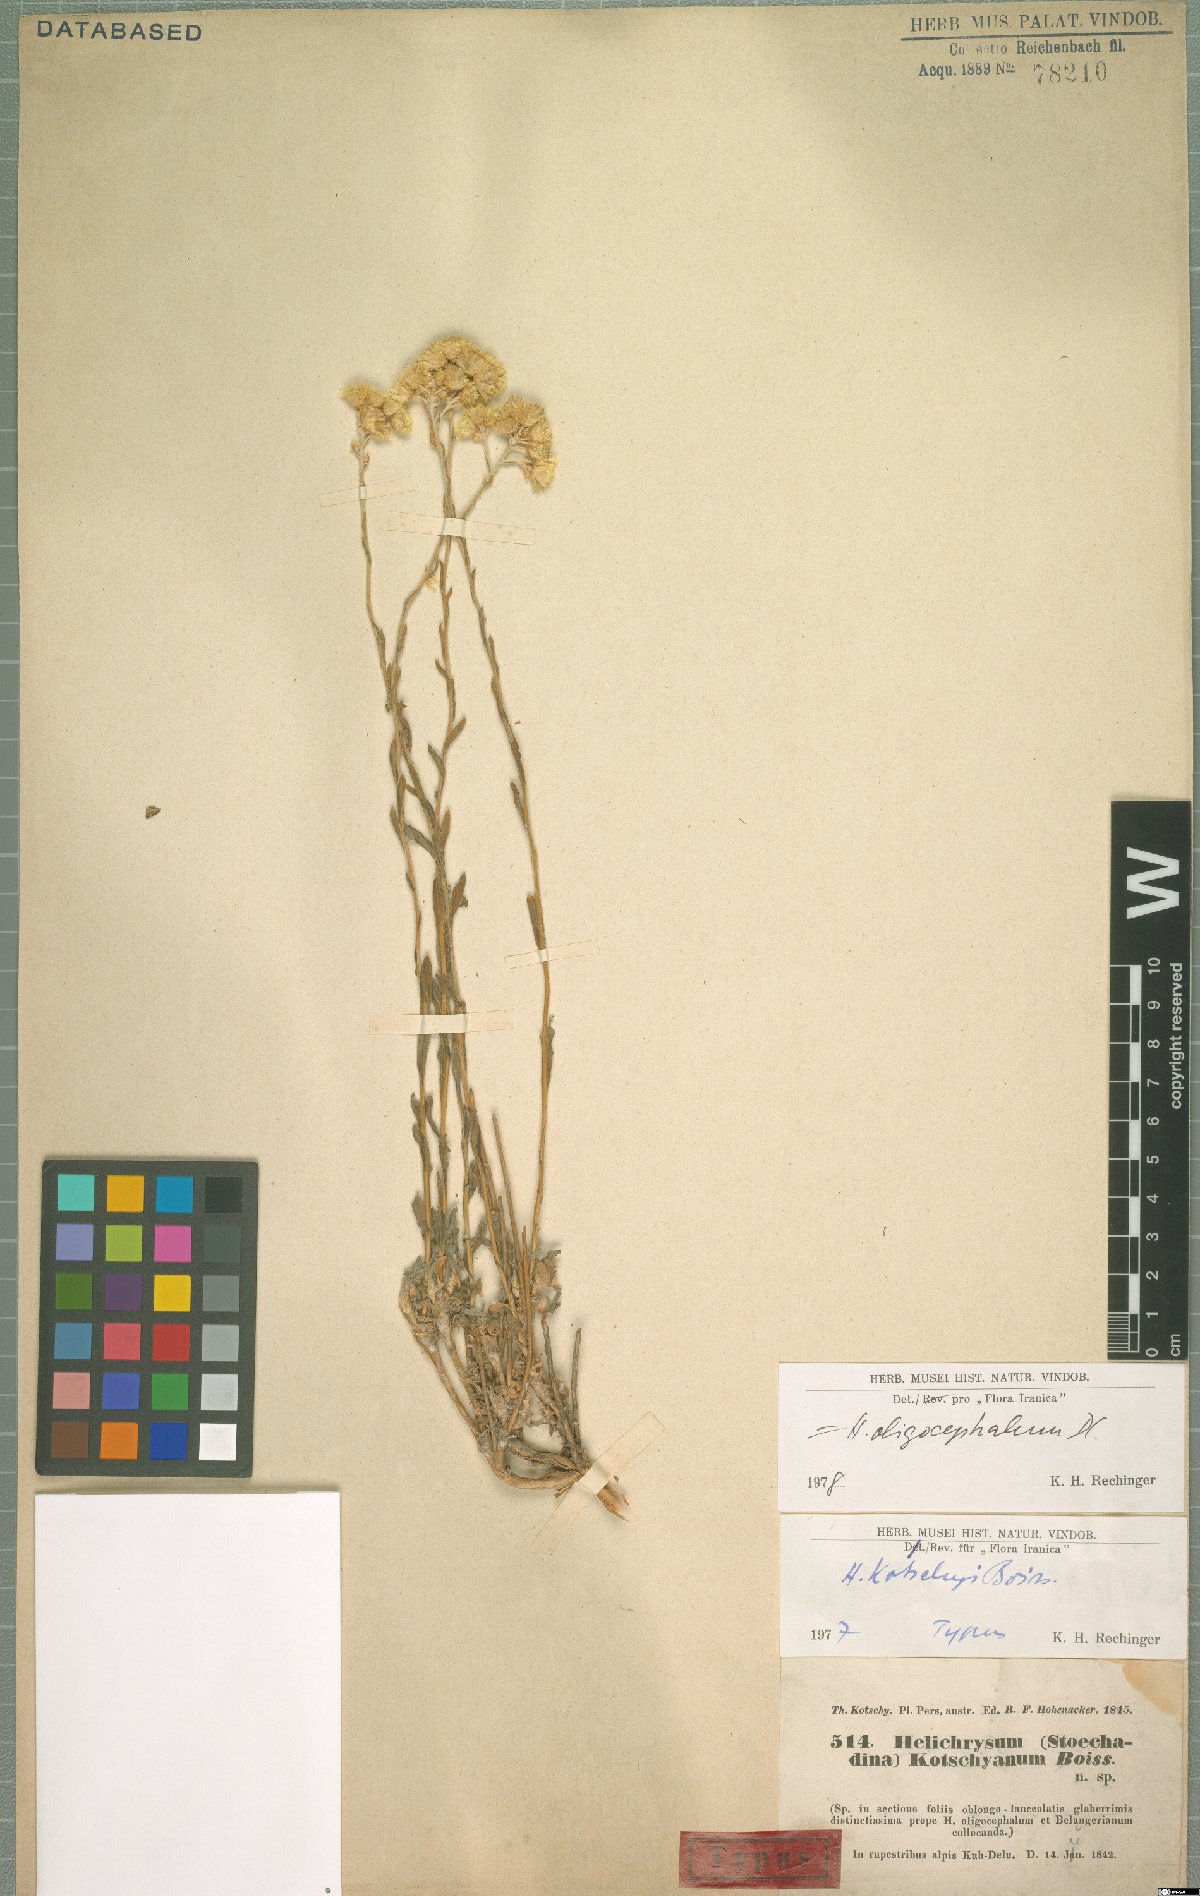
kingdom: Plantae
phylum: Tracheophyta
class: Magnoliopsida
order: Asterales
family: Asteraceae
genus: Helichrysum
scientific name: Helichrysum oligocephalum
